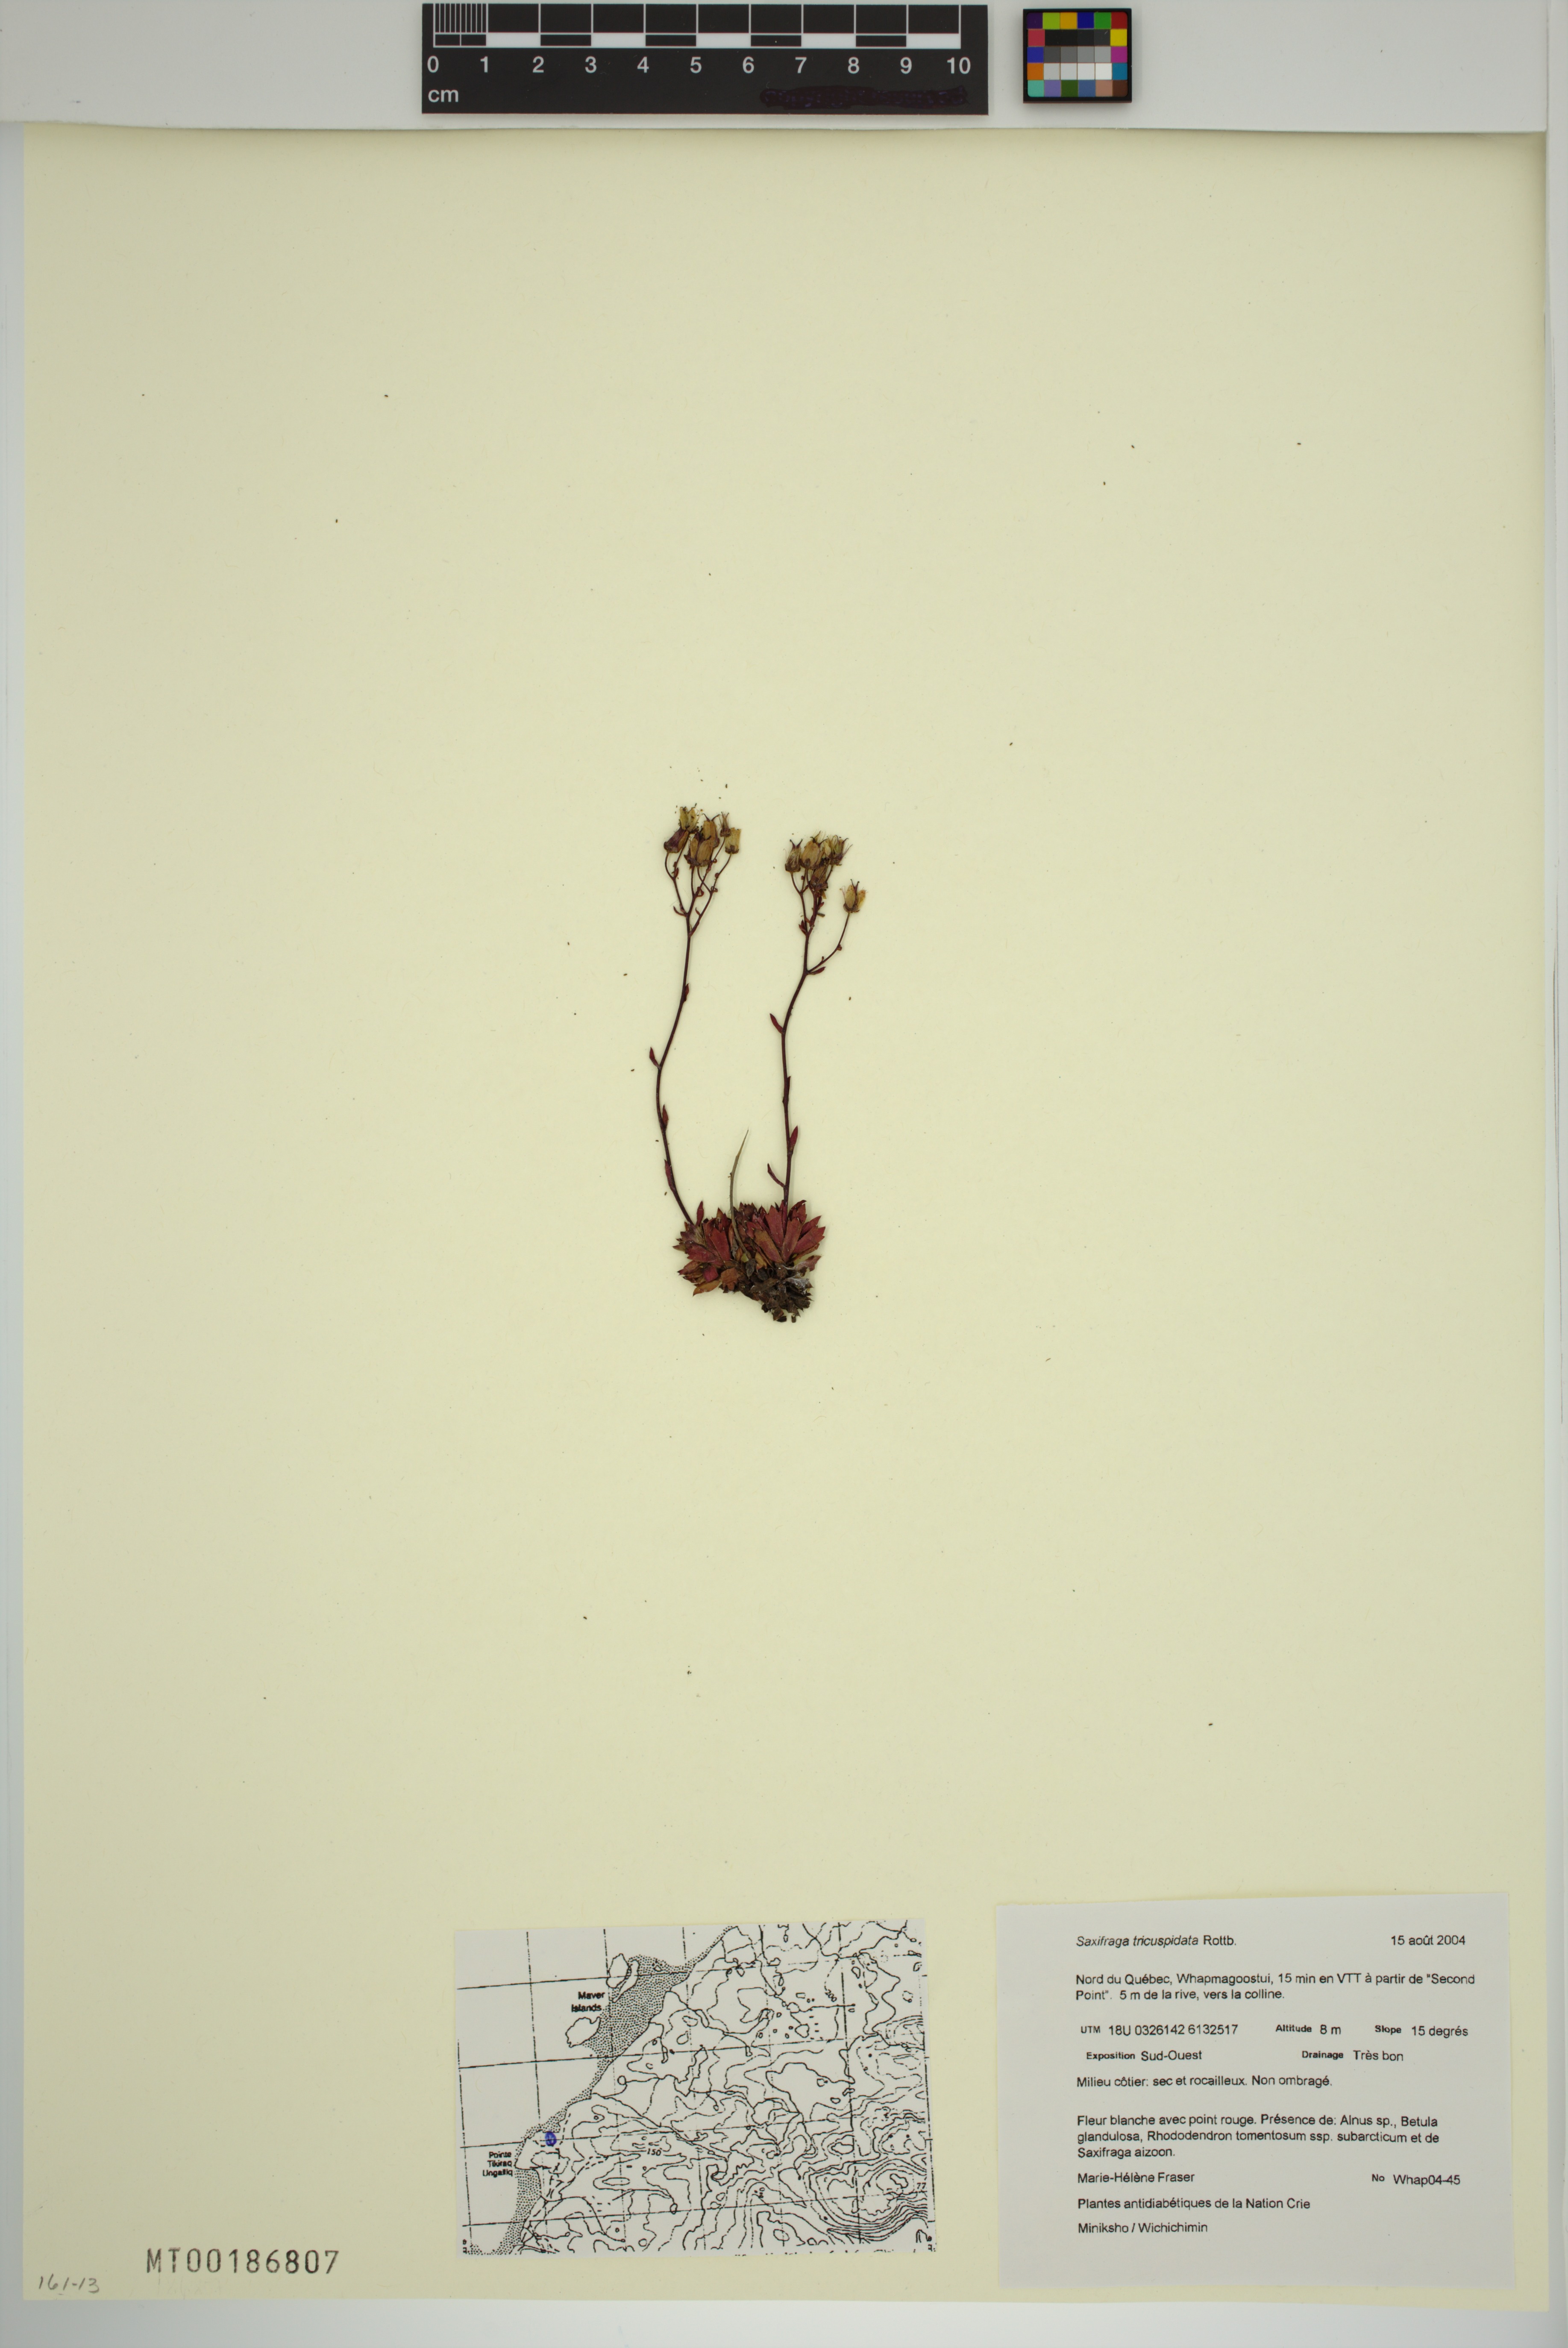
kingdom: Plantae
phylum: Tracheophyta
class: Magnoliopsida
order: Saxifragales
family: Saxifragaceae
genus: Saxifraga
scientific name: Saxifraga tricuspidata
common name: Prickly saxifrage
